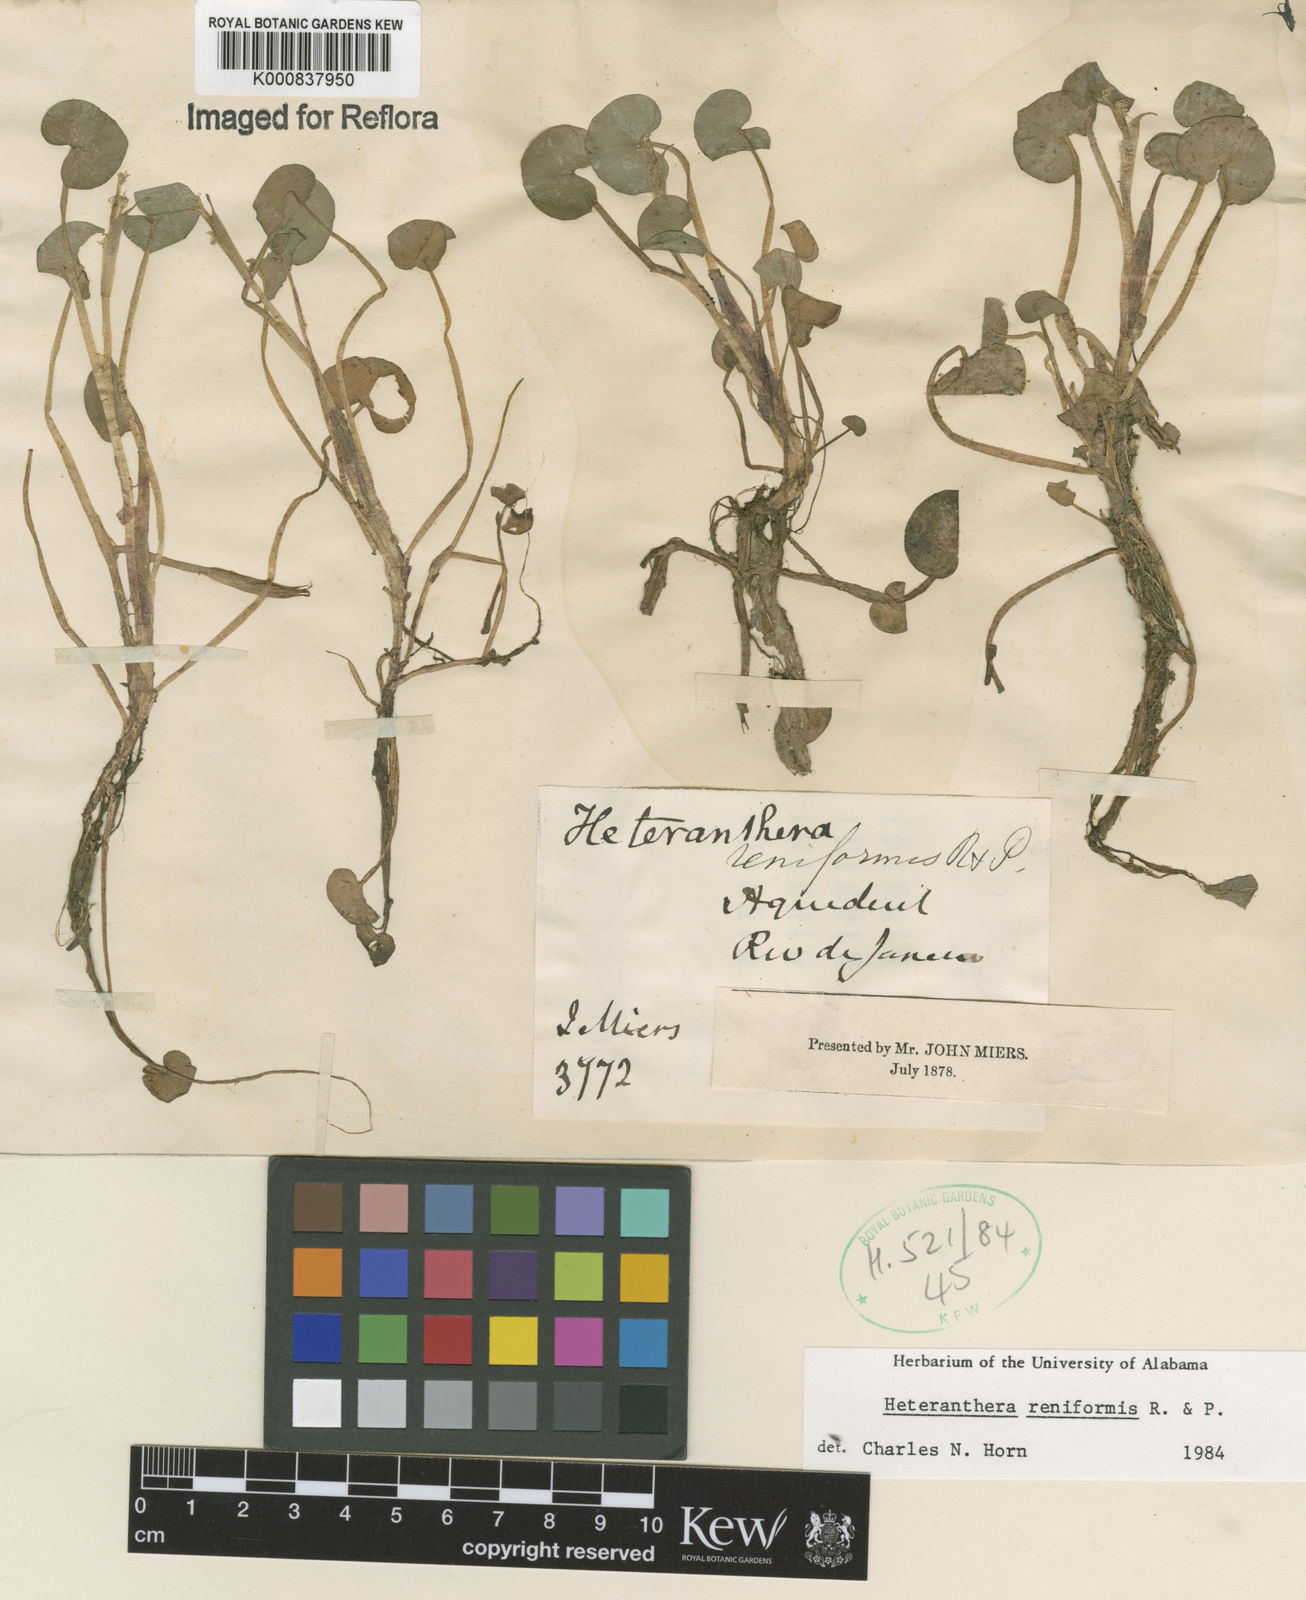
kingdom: Plantae
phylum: Tracheophyta
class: Liliopsida
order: Commelinales
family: Pontederiaceae
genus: Heteranthera
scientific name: Heteranthera reniformis
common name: Kidneyleaf mudplantain
